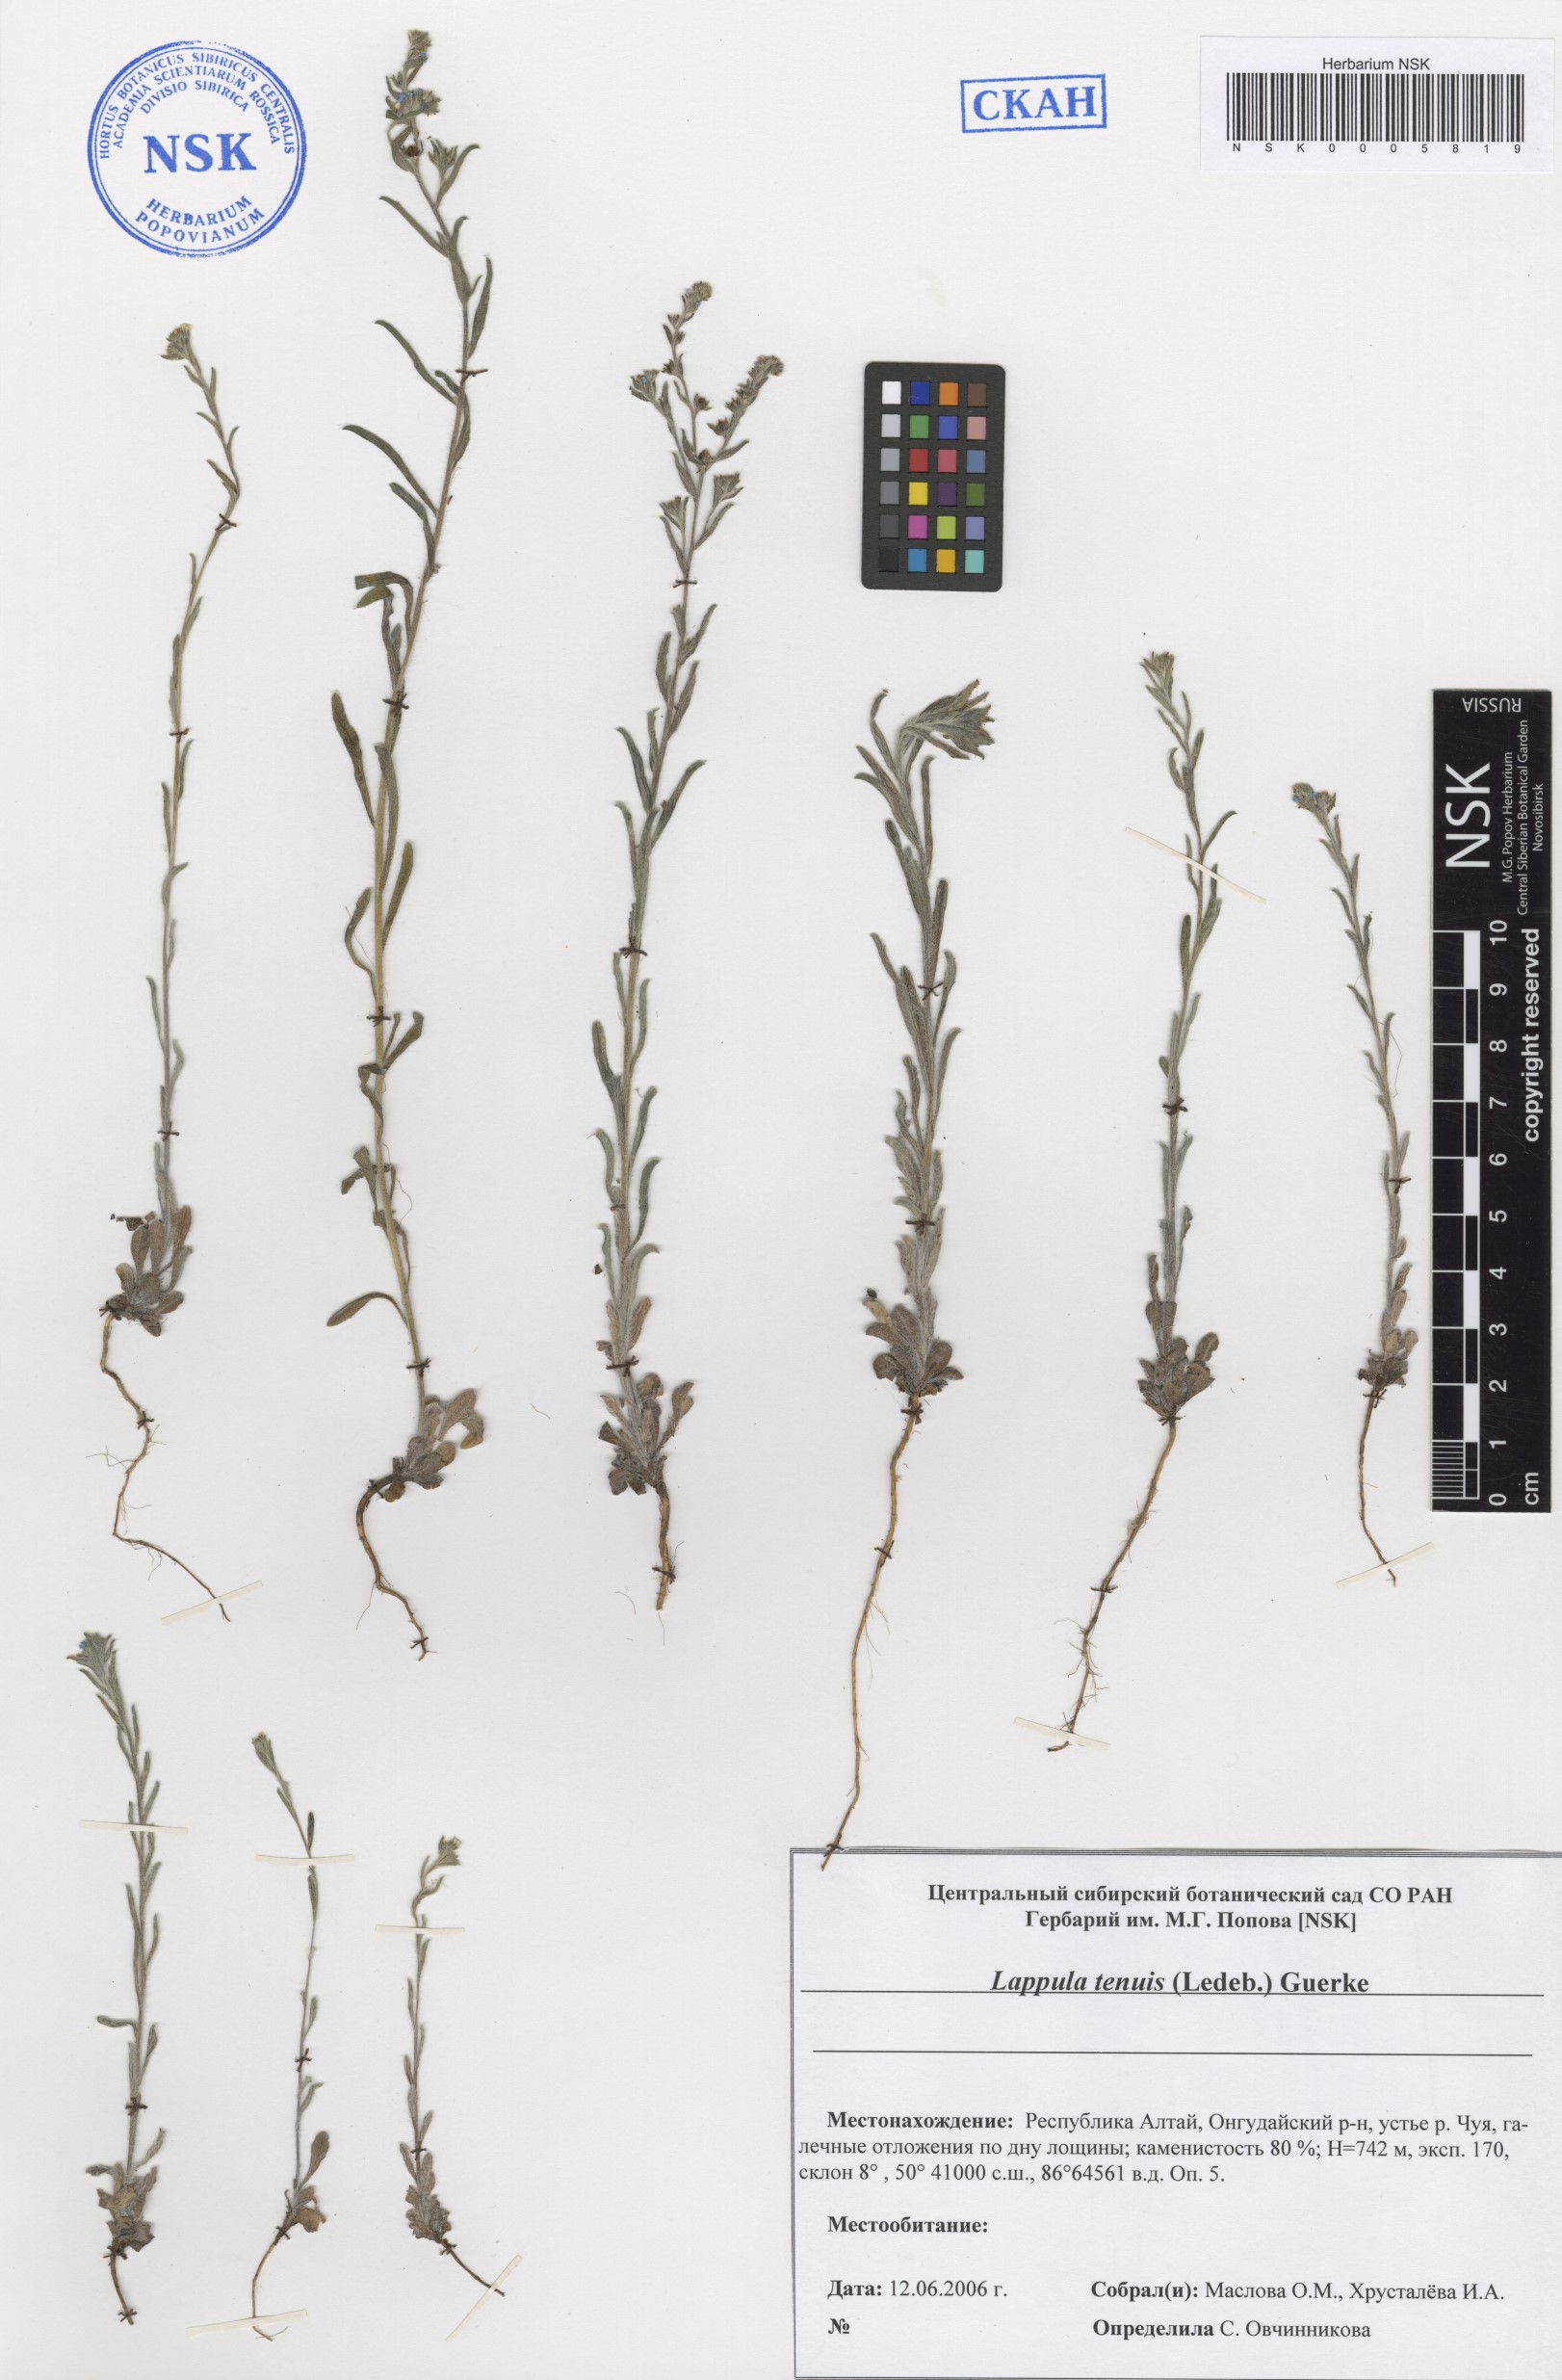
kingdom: Plantae
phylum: Tracheophyta
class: Magnoliopsida
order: Boraginales
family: Boraginaceae
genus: Lappula
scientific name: Lappula tenuis
